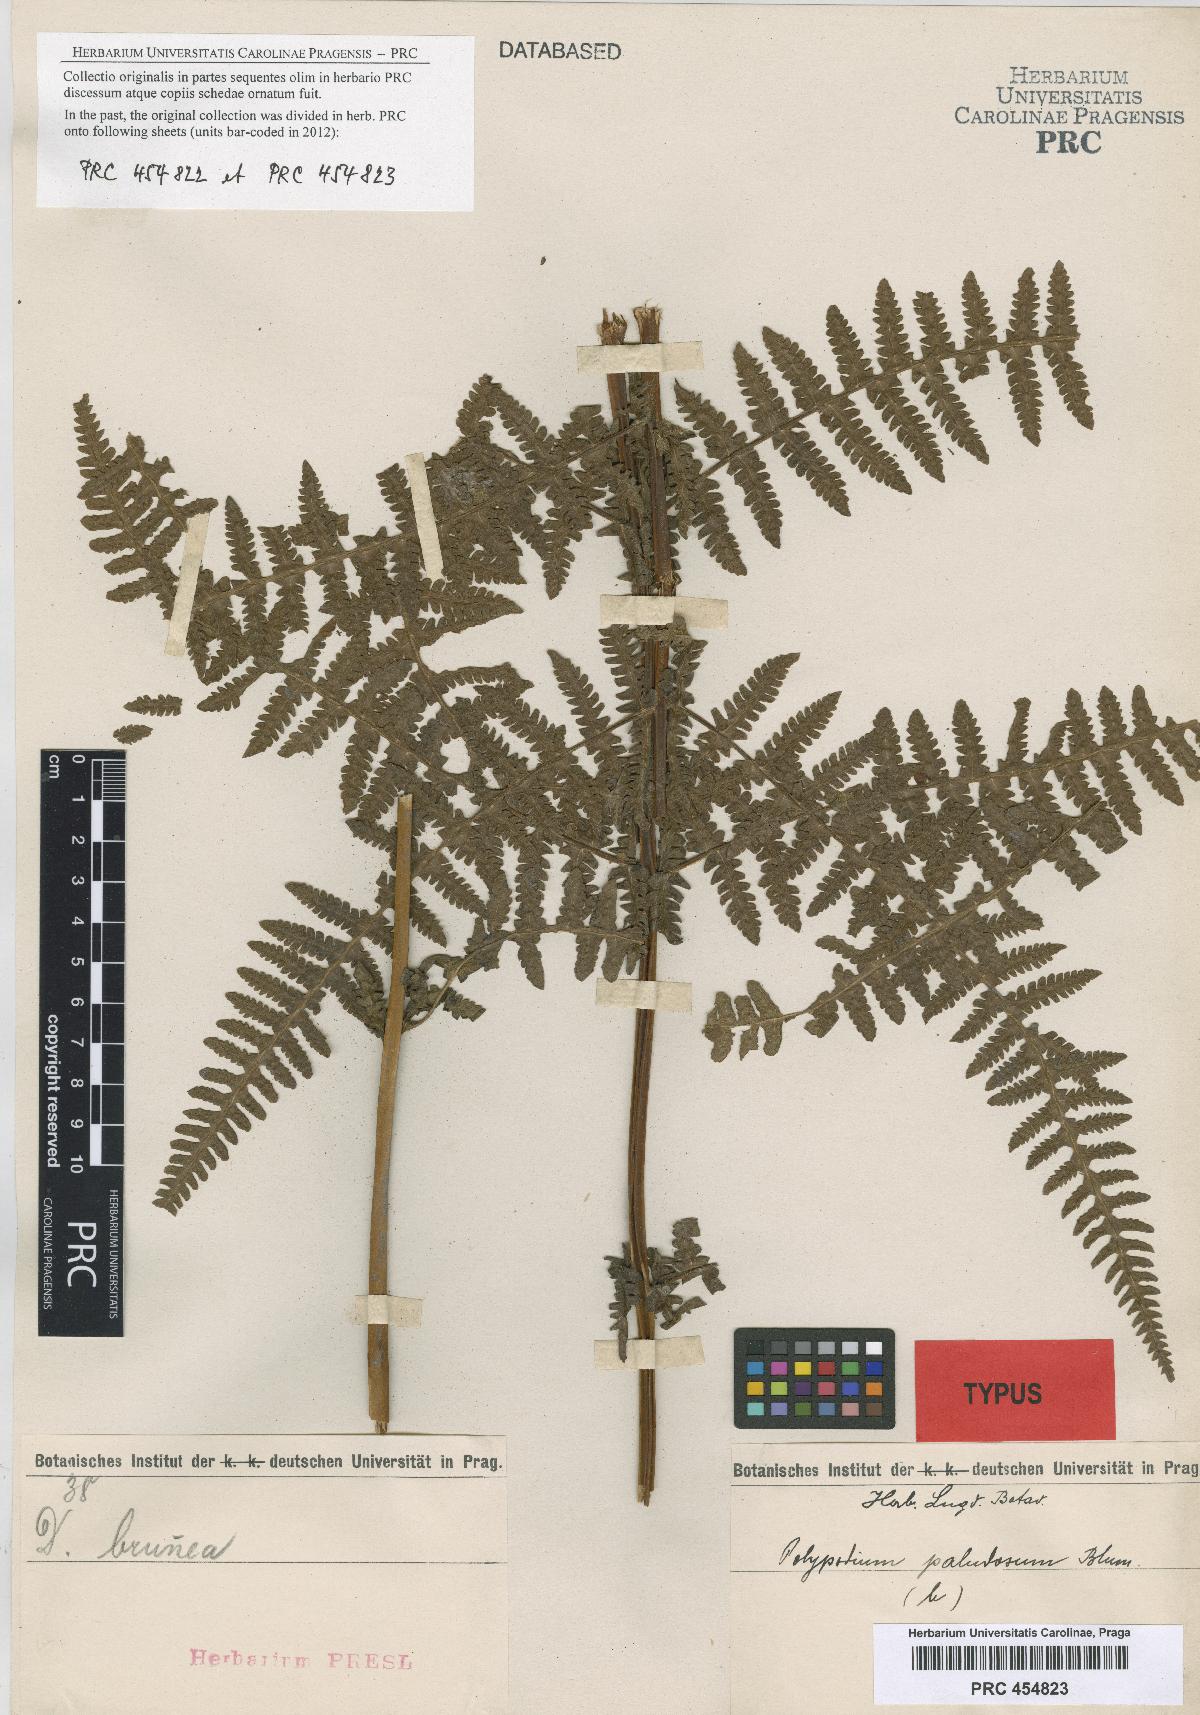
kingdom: Plantae
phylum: Tracheophyta
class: Polypodiopsida
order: Polypodiales
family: Thelypteridaceae
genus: Pseudophegopteris
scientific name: Pseudophegopteris paludosa
